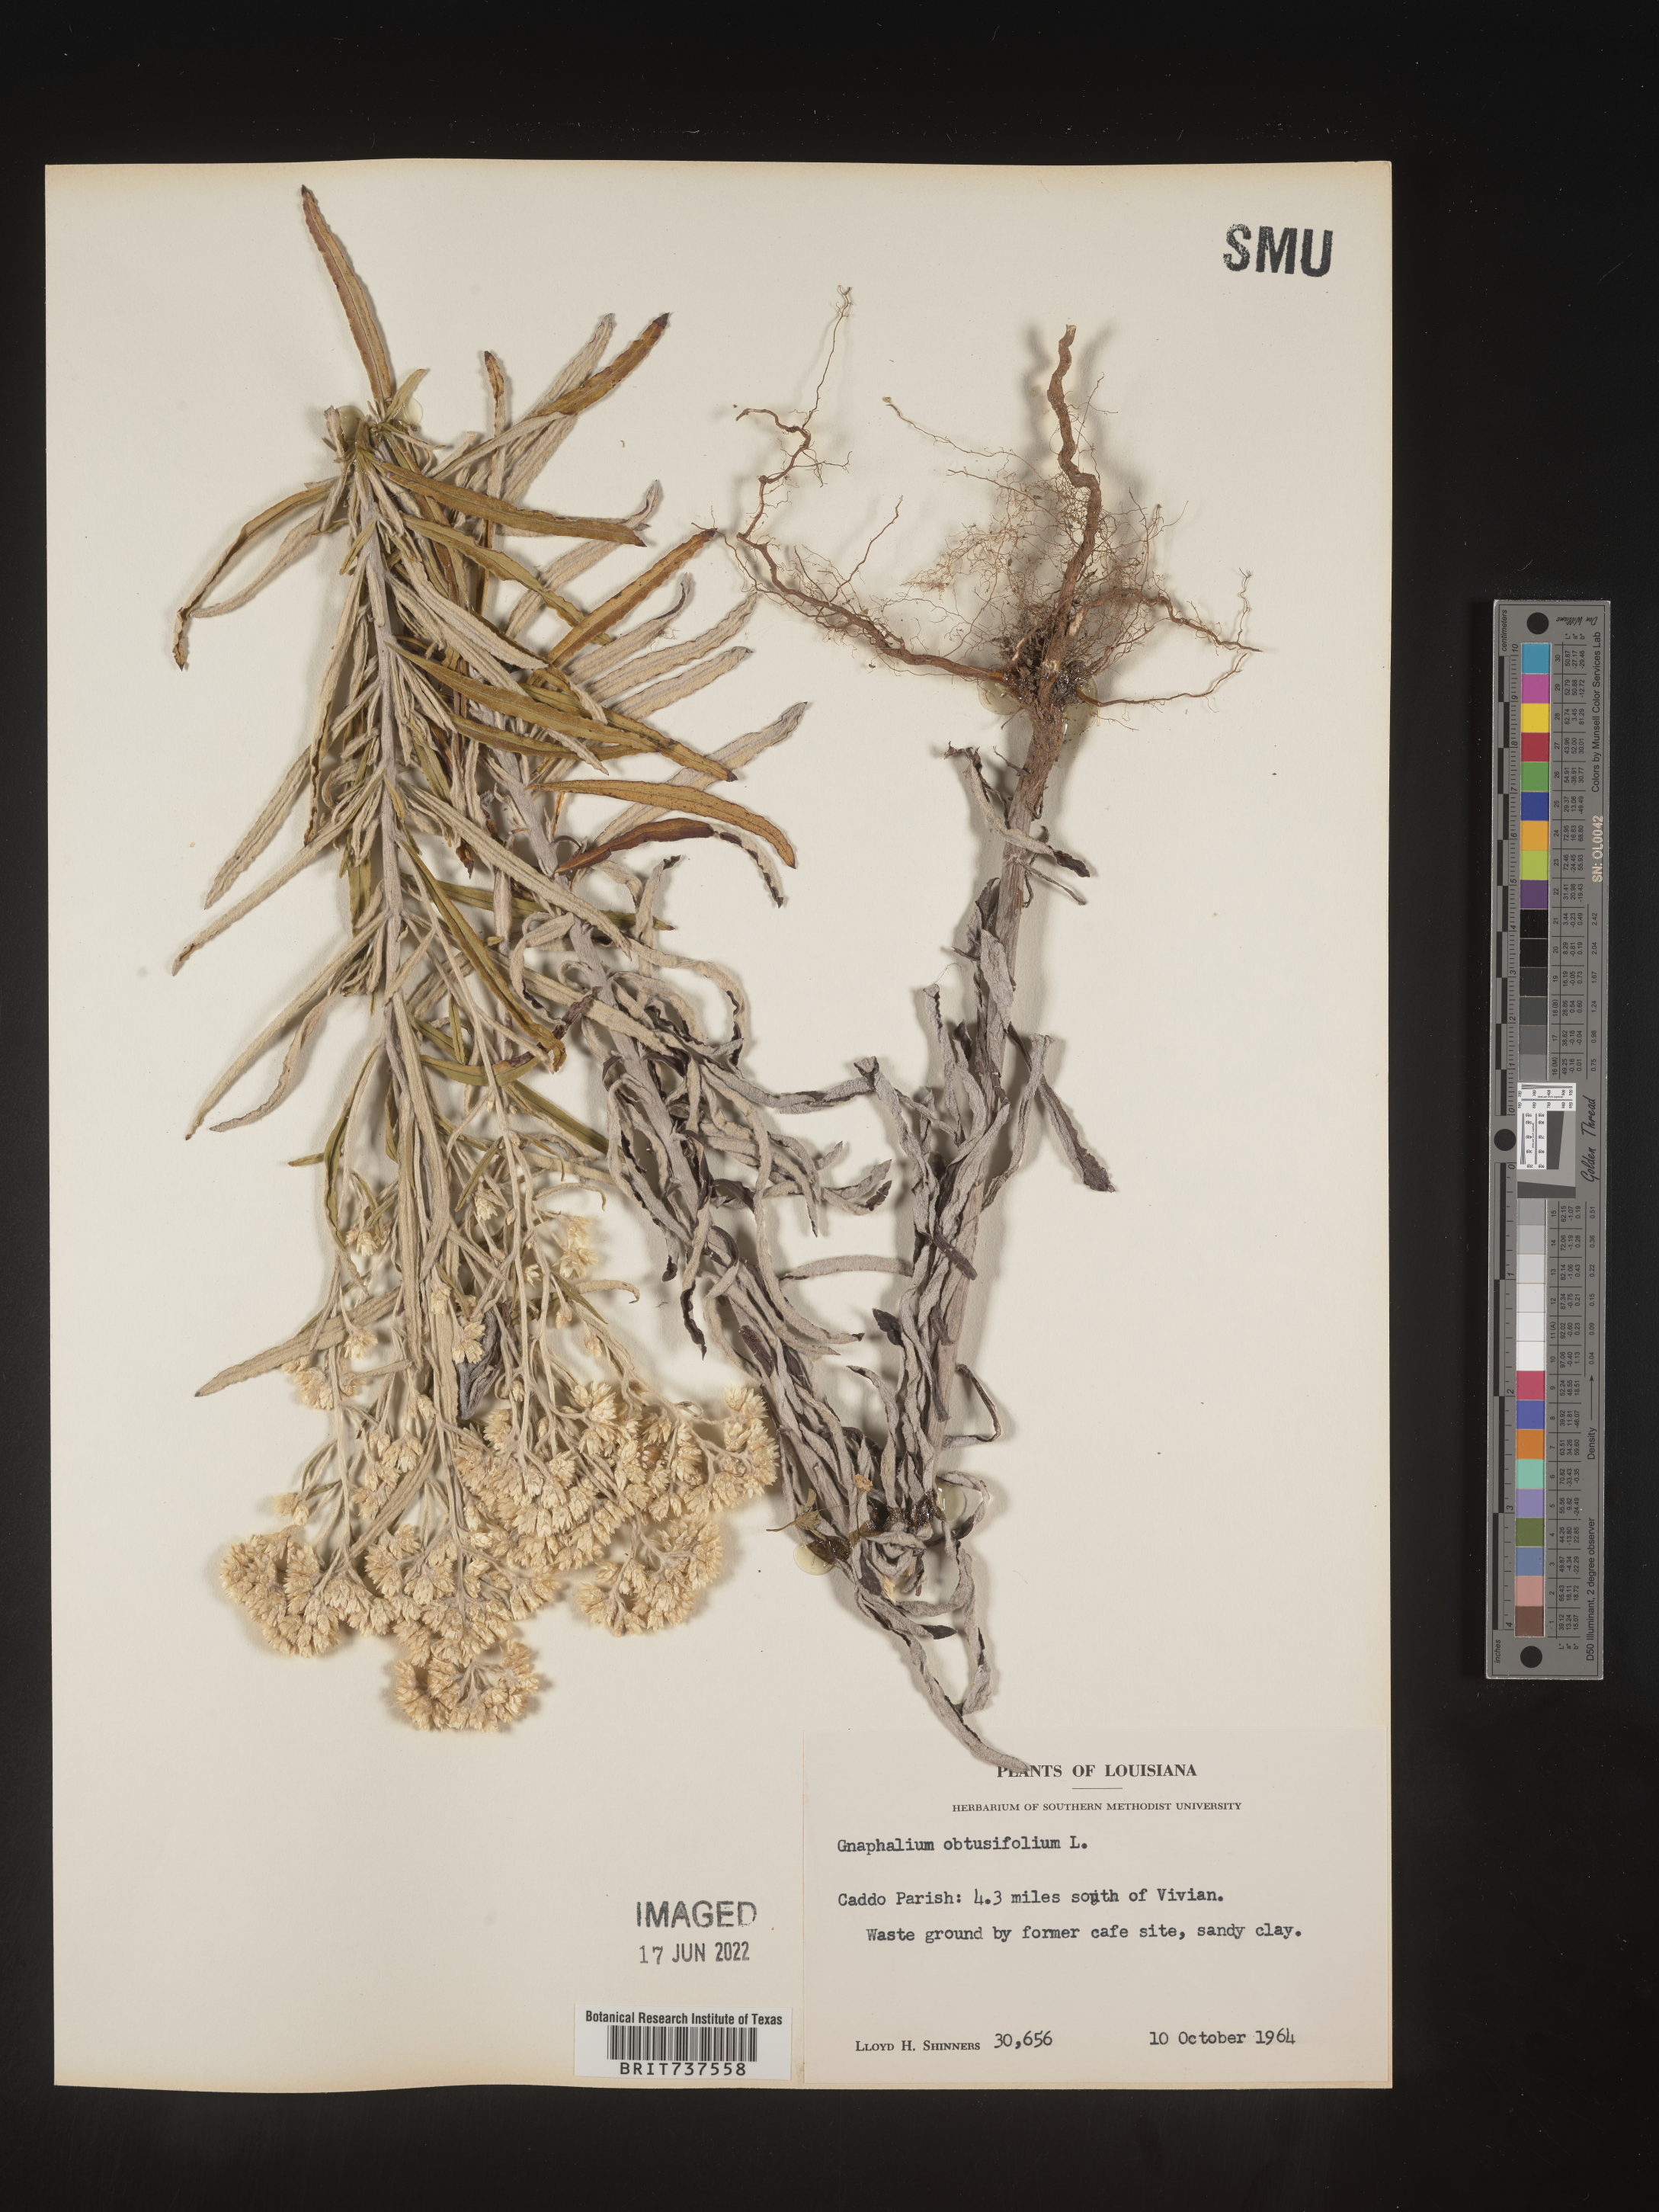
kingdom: Plantae
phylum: Tracheophyta
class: Magnoliopsida
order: Asterales
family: Asteraceae
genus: Pseudognaphalium
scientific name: Pseudognaphalium obtusifolium
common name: Eastern rabbit-tobacco
